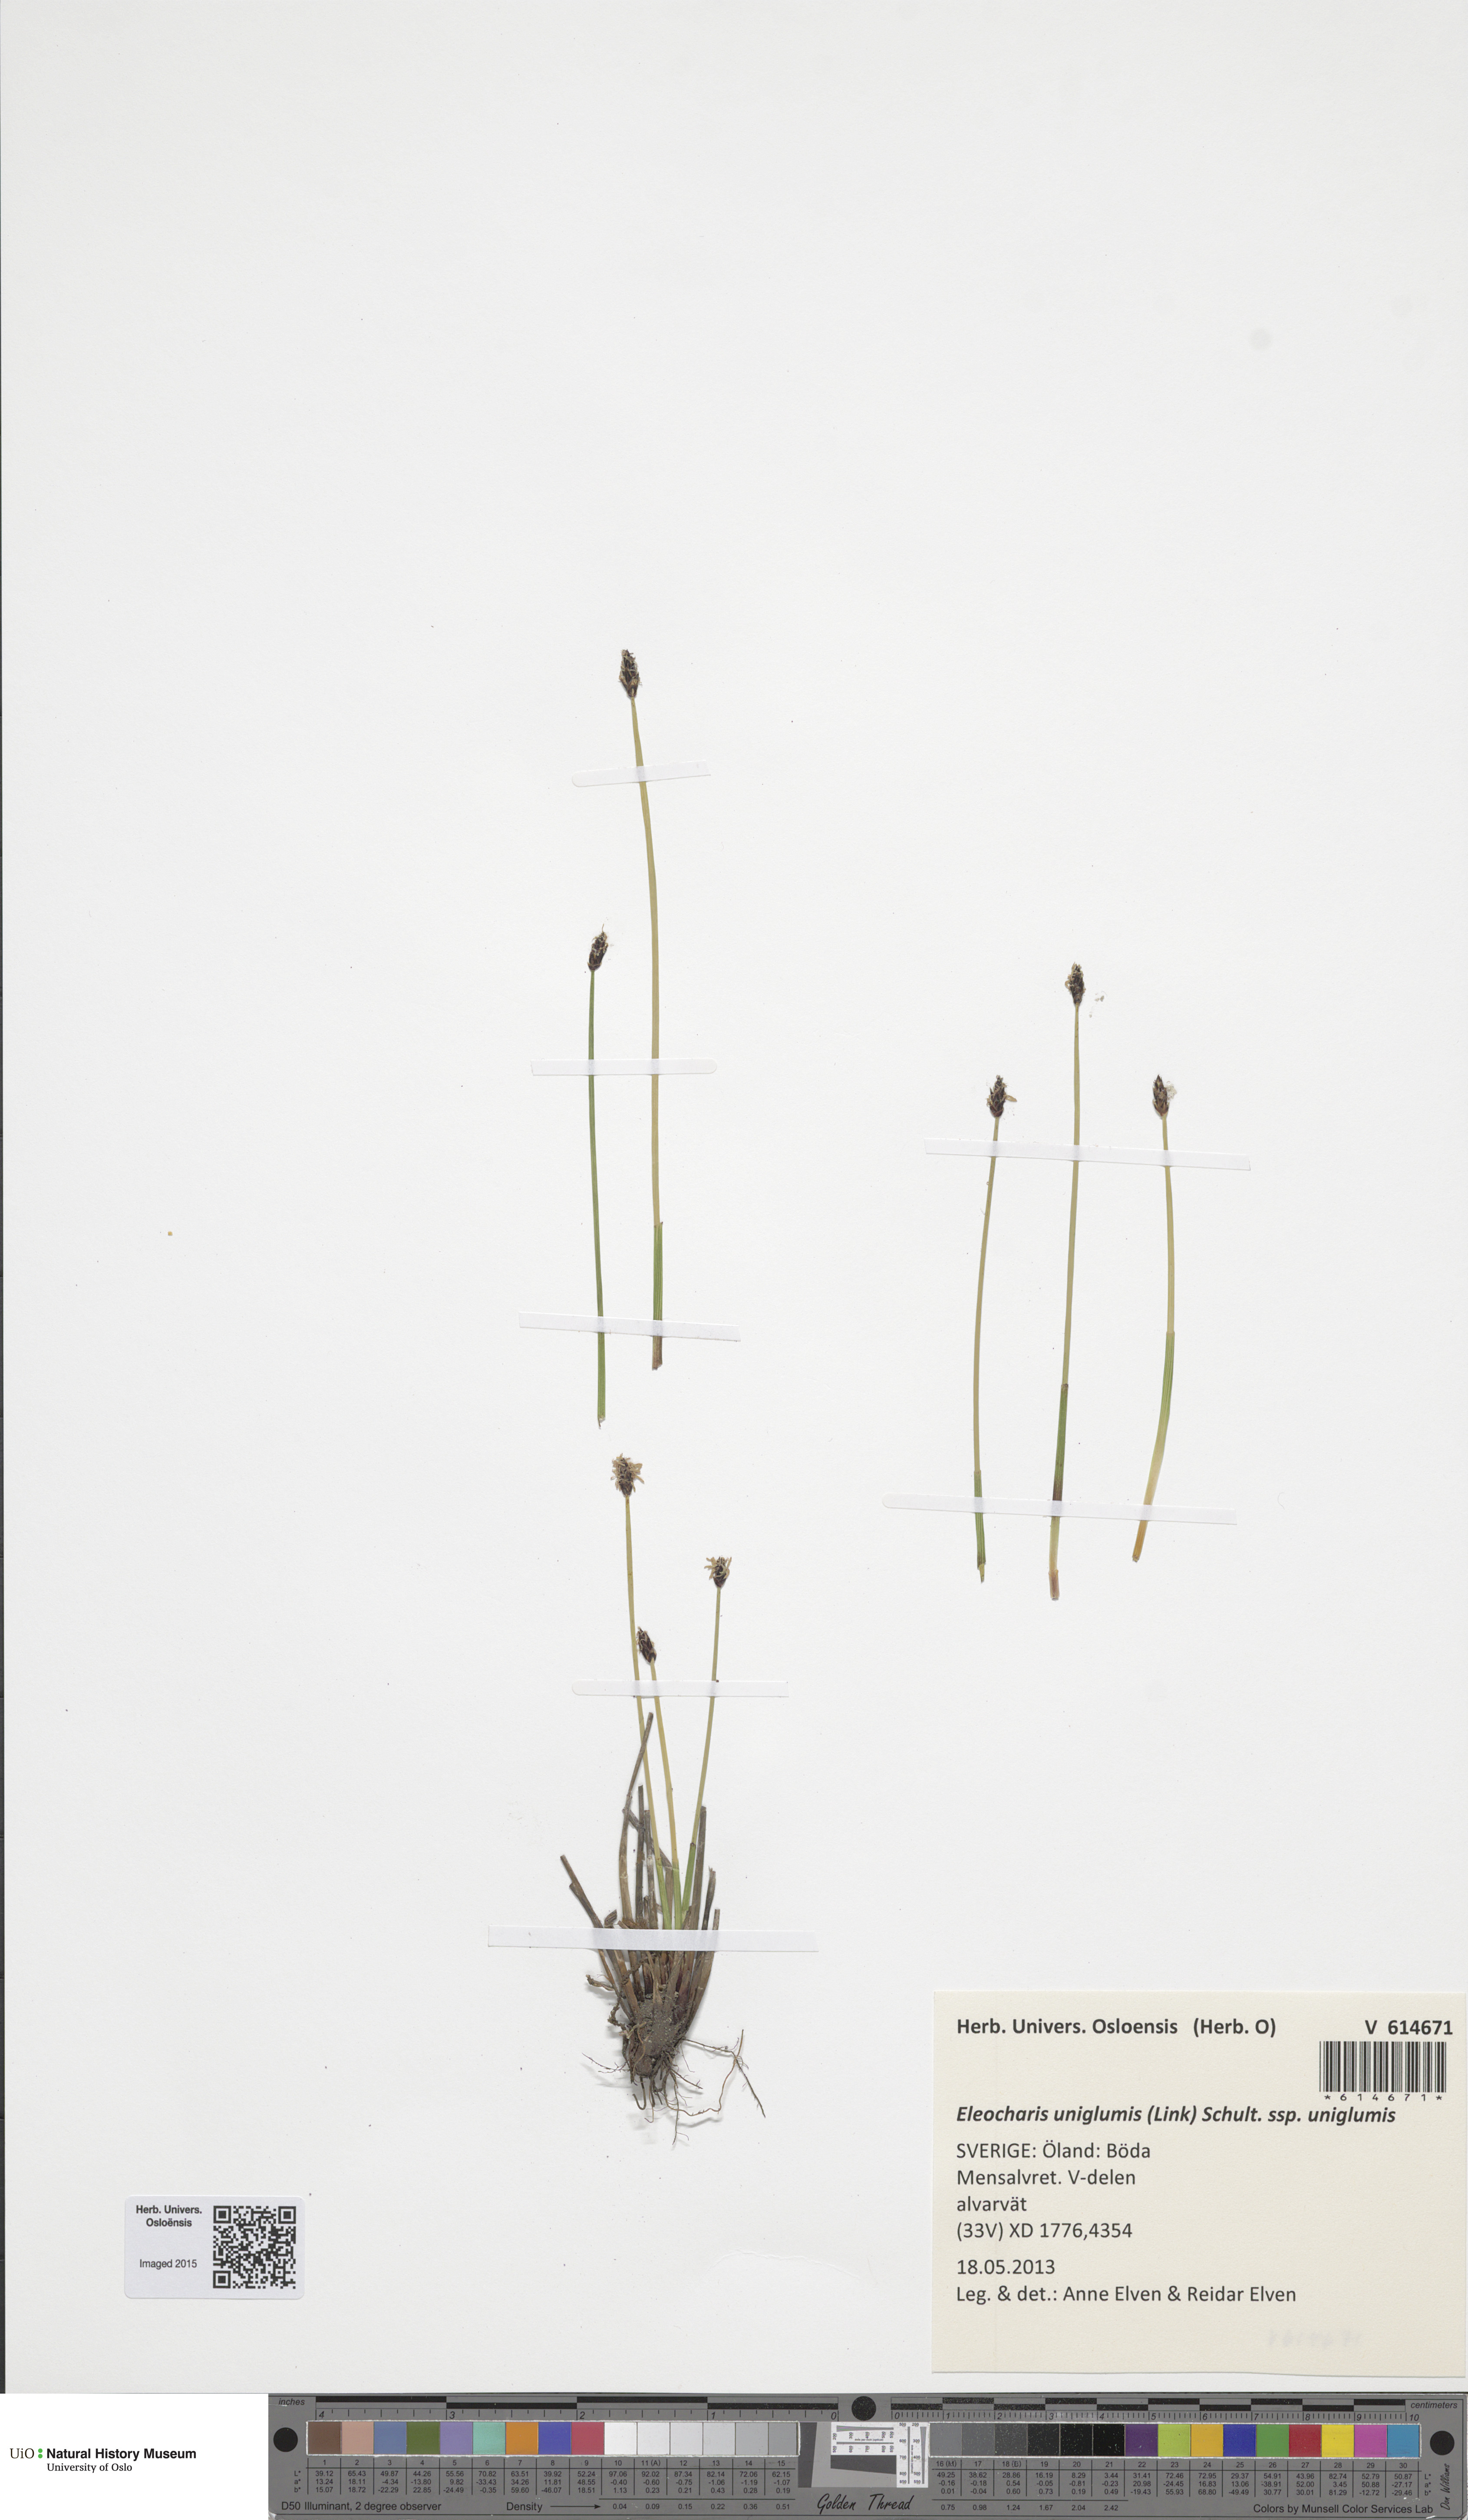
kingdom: Plantae
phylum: Tracheophyta
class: Liliopsida
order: Poales
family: Cyperaceae
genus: Eleocharis
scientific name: Eleocharis uniglumis
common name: Slender spike-rush
